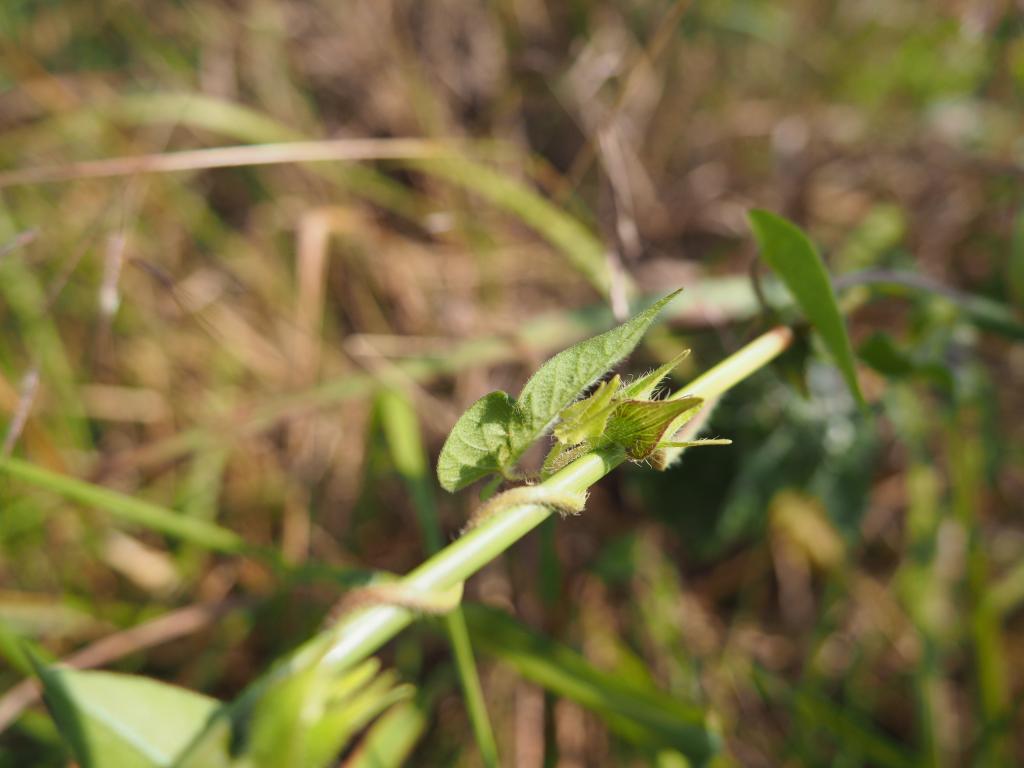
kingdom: Plantae
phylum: Tracheophyta
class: Magnoliopsida
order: Solanales
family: Convolvulaceae
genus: Ipomoea
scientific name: Ipomoea biflora
